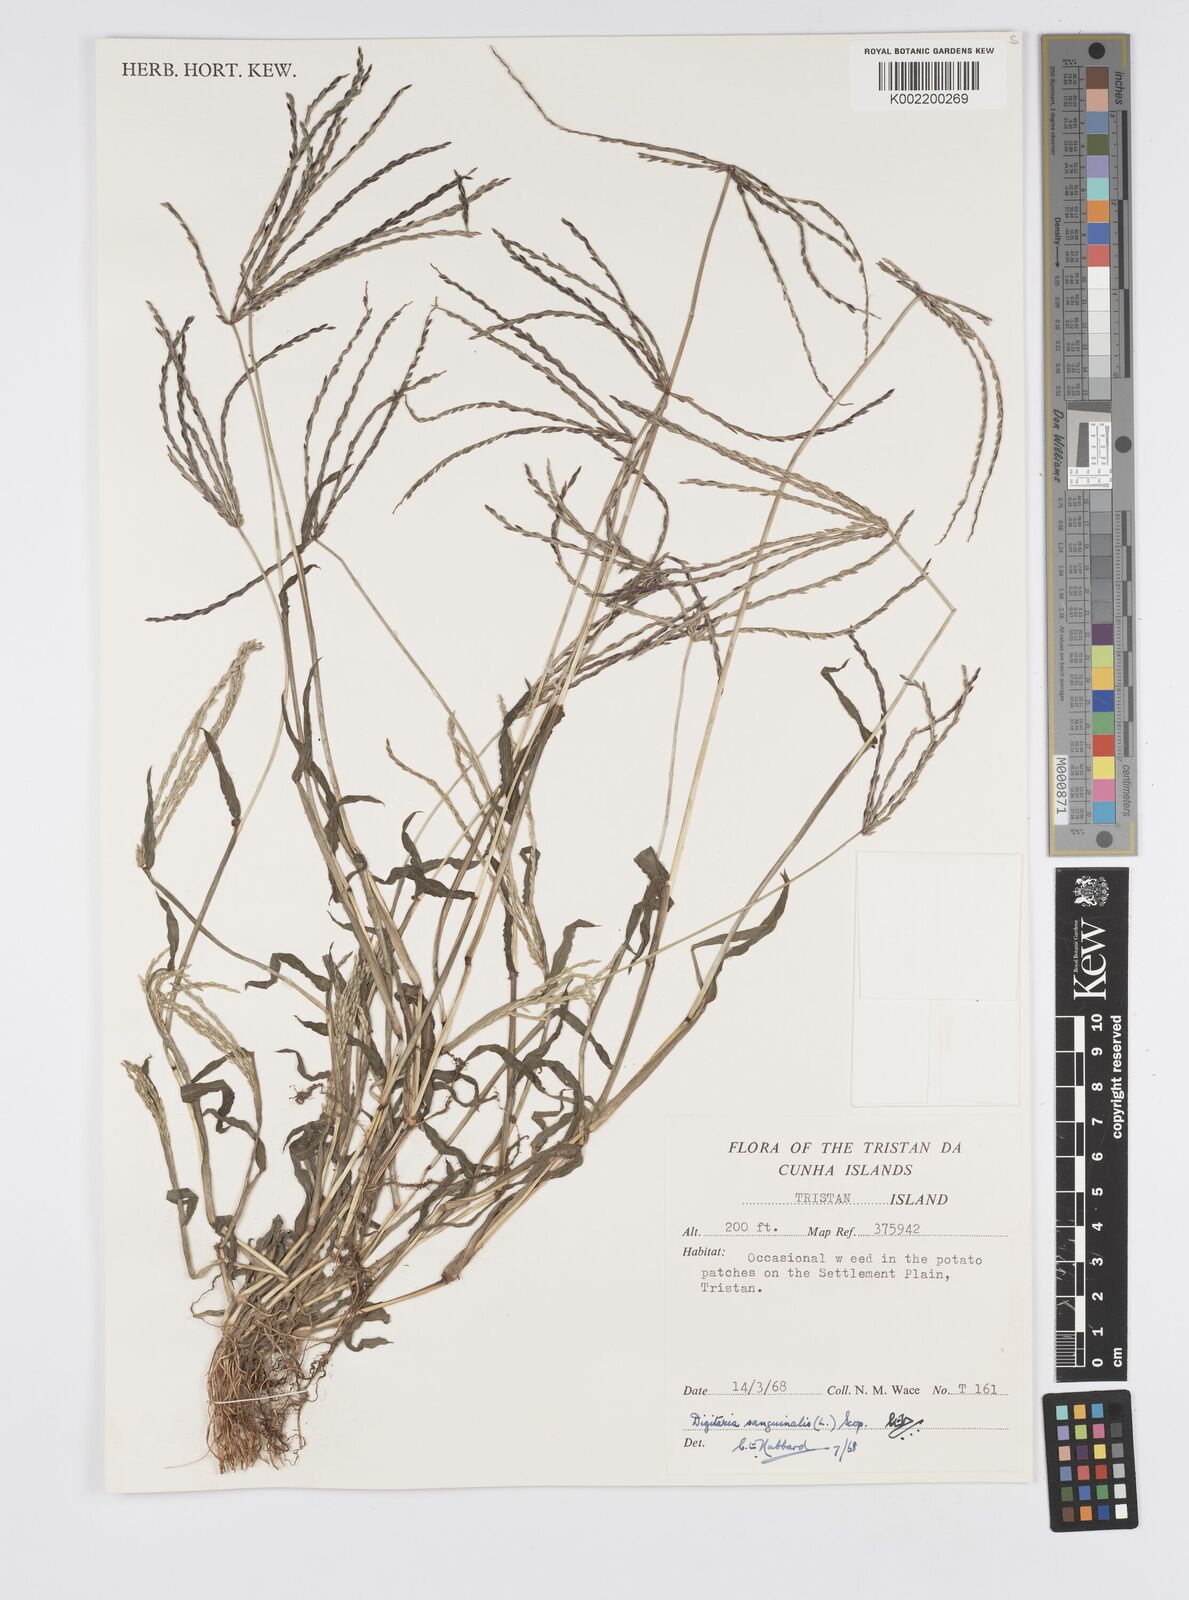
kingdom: Plantae
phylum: Tracheophyta
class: Liliopsida
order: Poales
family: Poaceae
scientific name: Poaceae
